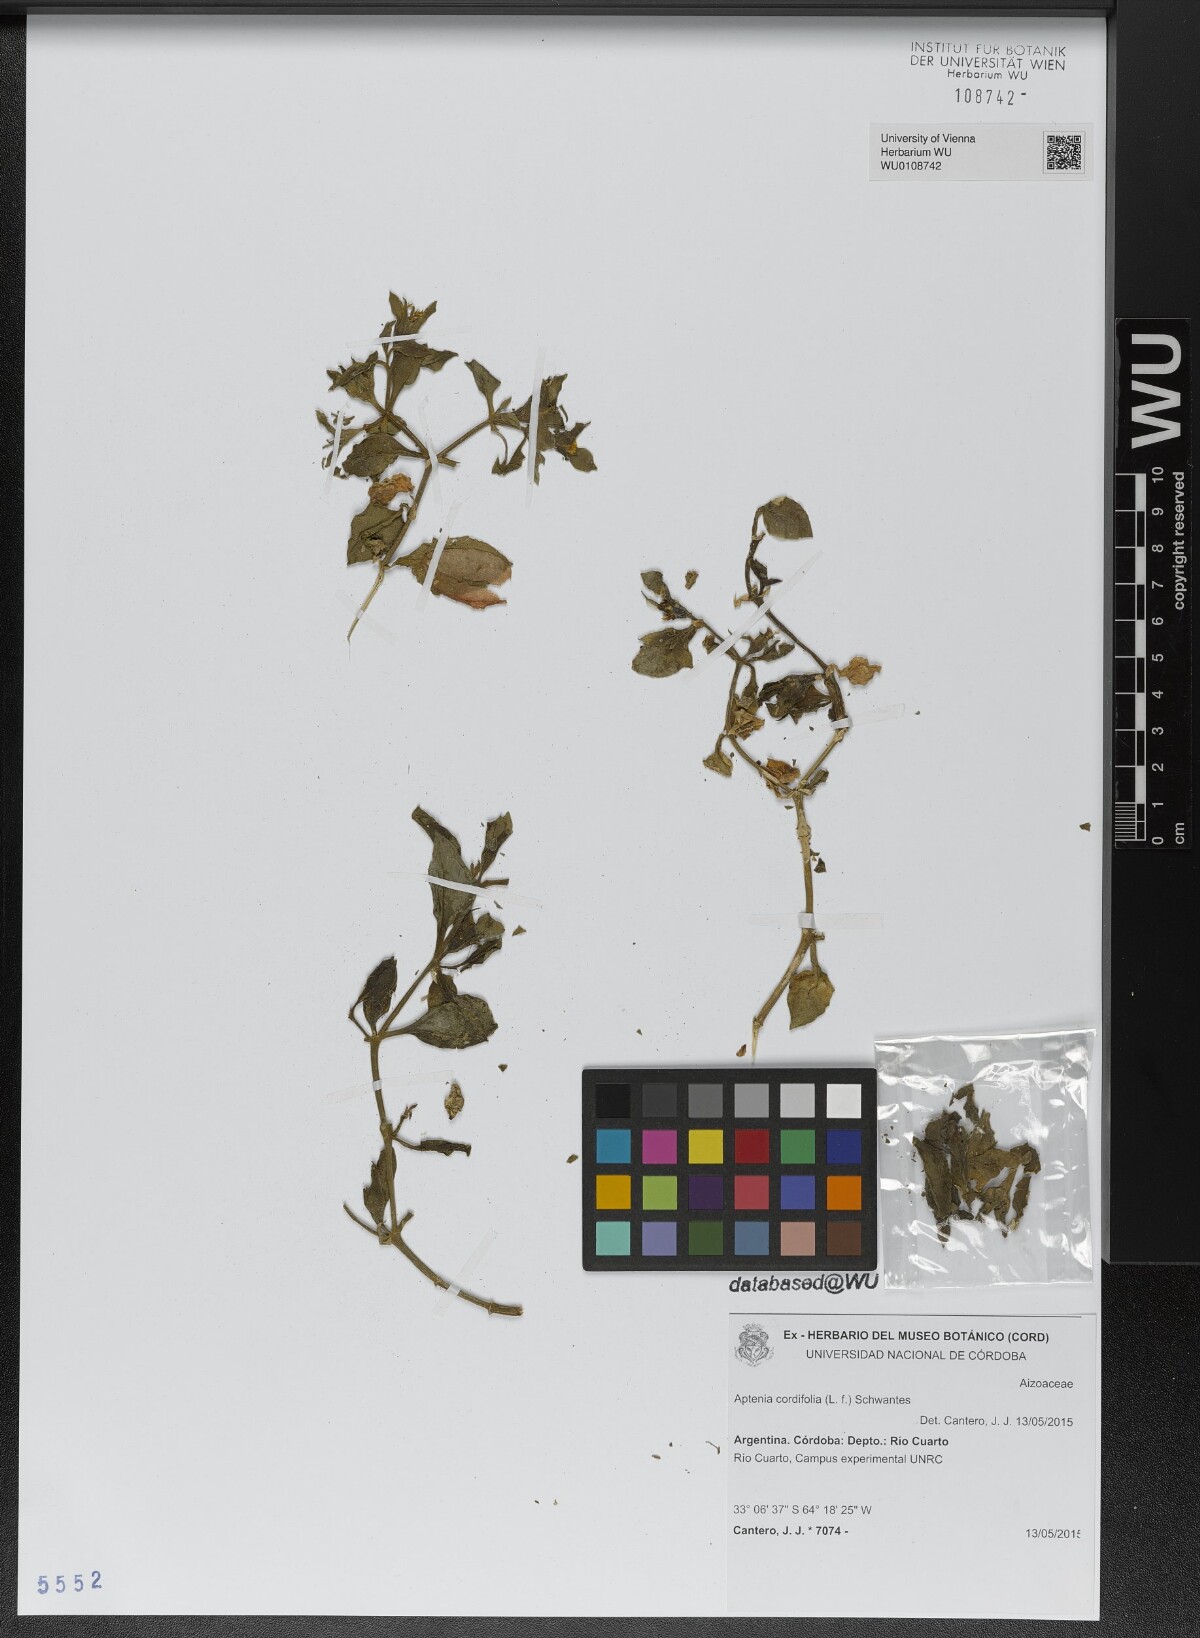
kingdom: Plantae
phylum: Tracheophyta
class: Magnoliopsida
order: Caryophyllales
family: Aizoaceae
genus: Mesembryanthemum
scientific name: Mesembryanthemum cordifolium
